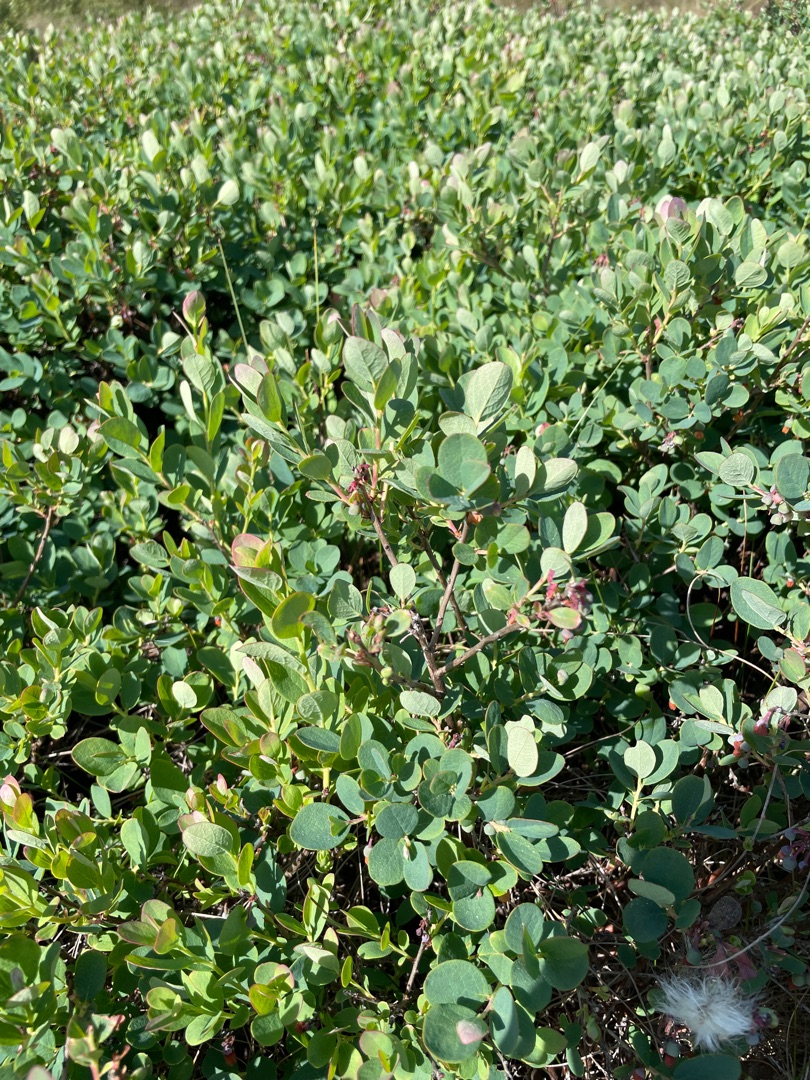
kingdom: Plantae
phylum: Tracheophyta
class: Magnoliopsida
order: Ericales
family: Ericaceae
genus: Vaccinium
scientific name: Vaccinium uliginosum
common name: Mose-bølle
